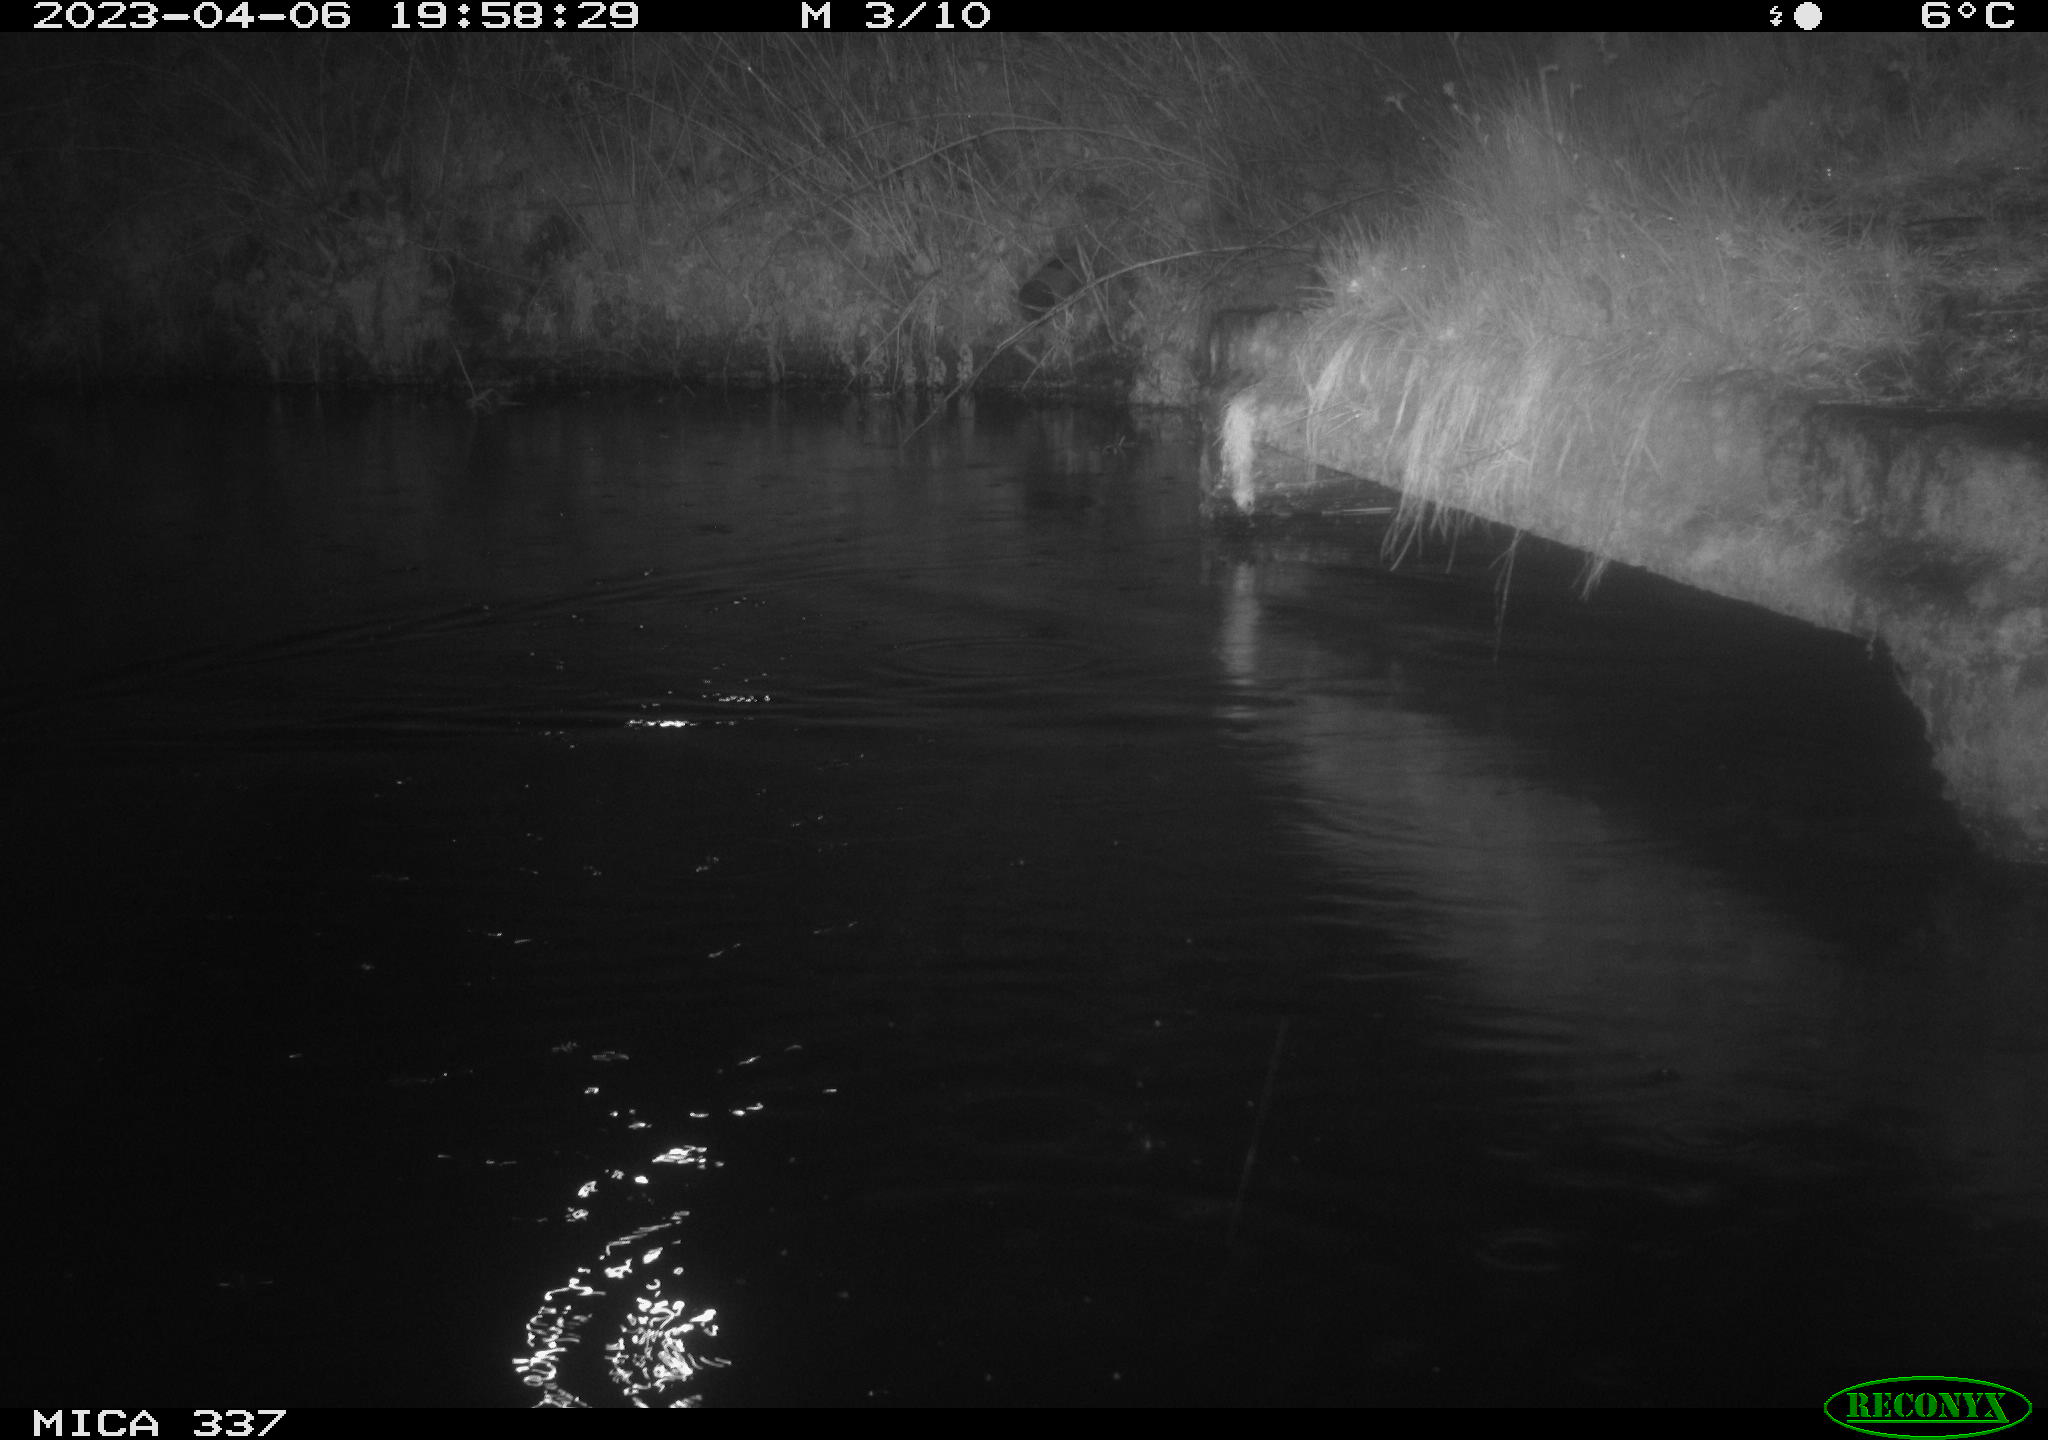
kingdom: Animalia
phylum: Chordata
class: Aves
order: Anseriformes
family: Anatidae
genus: Anas
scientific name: Anas platyrhynchos
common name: Mallard
